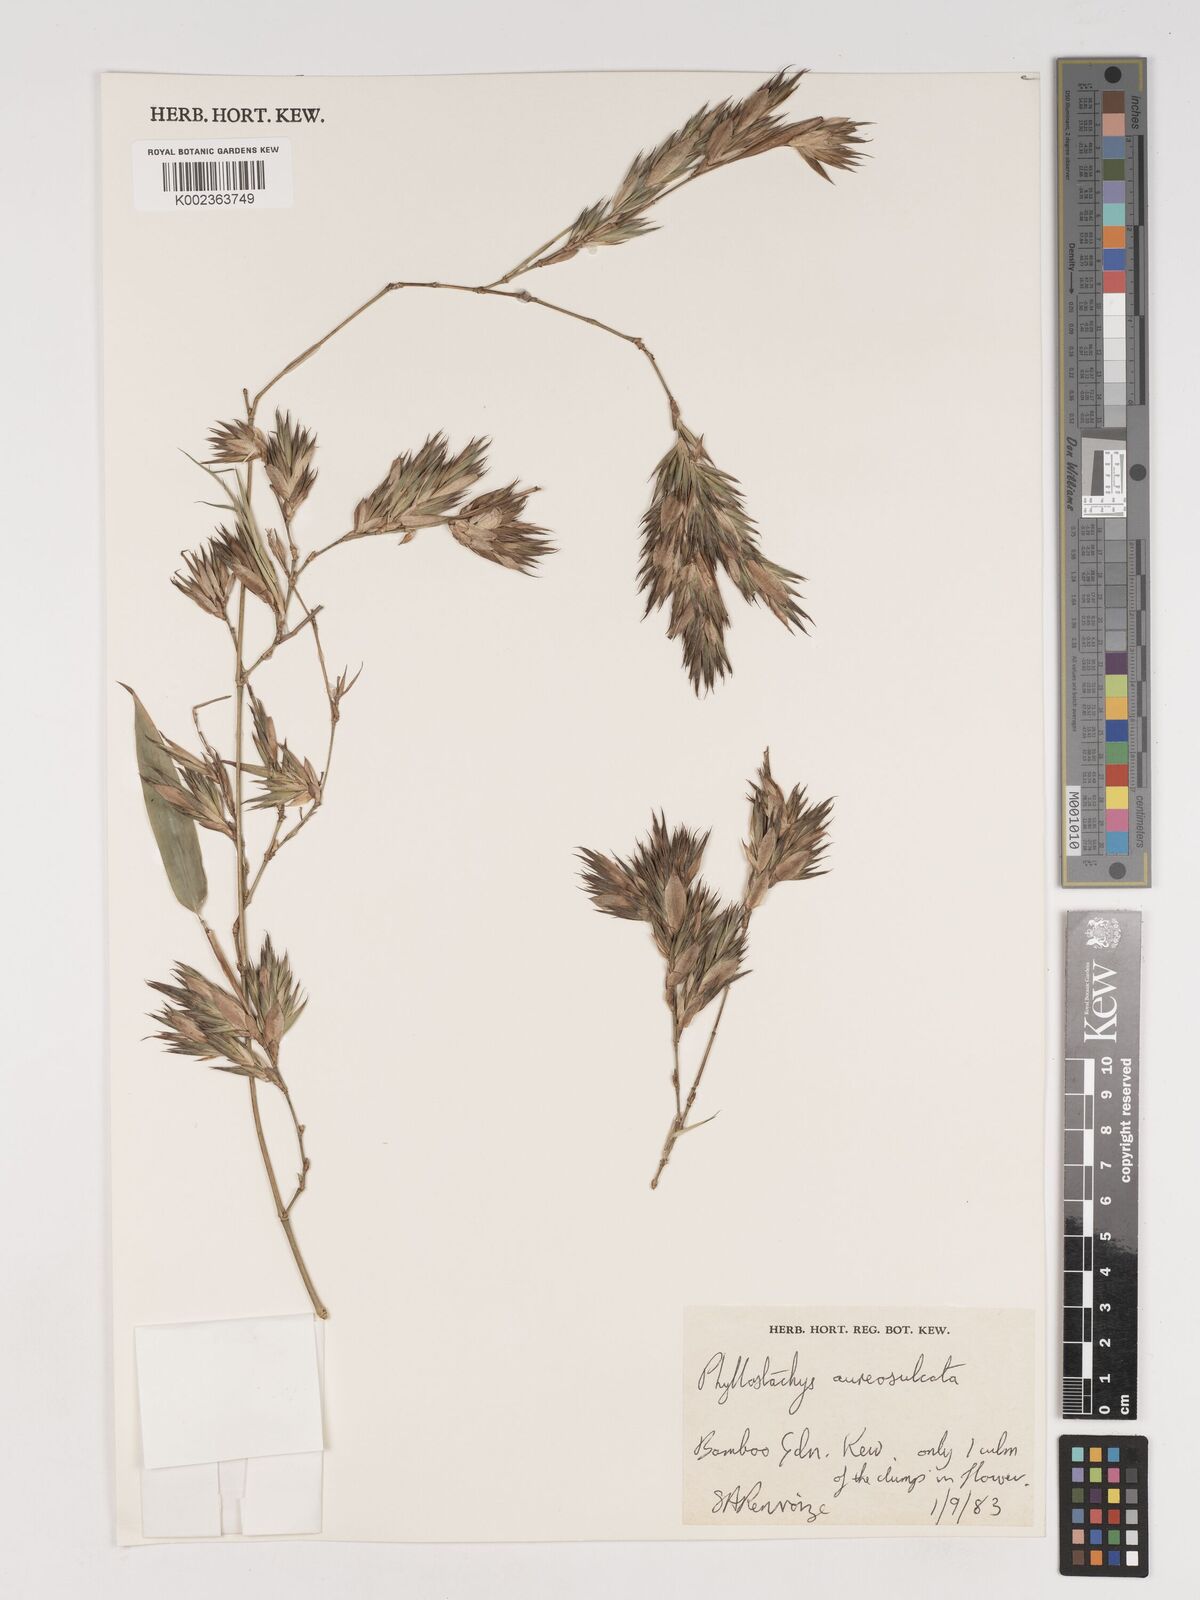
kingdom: Plantae
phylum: Tracheophyta
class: Liliopsida
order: Poales
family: Poaceae
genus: Phyllostachys
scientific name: Phyllostachys aureosulcata
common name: Yellow groove bamboo
